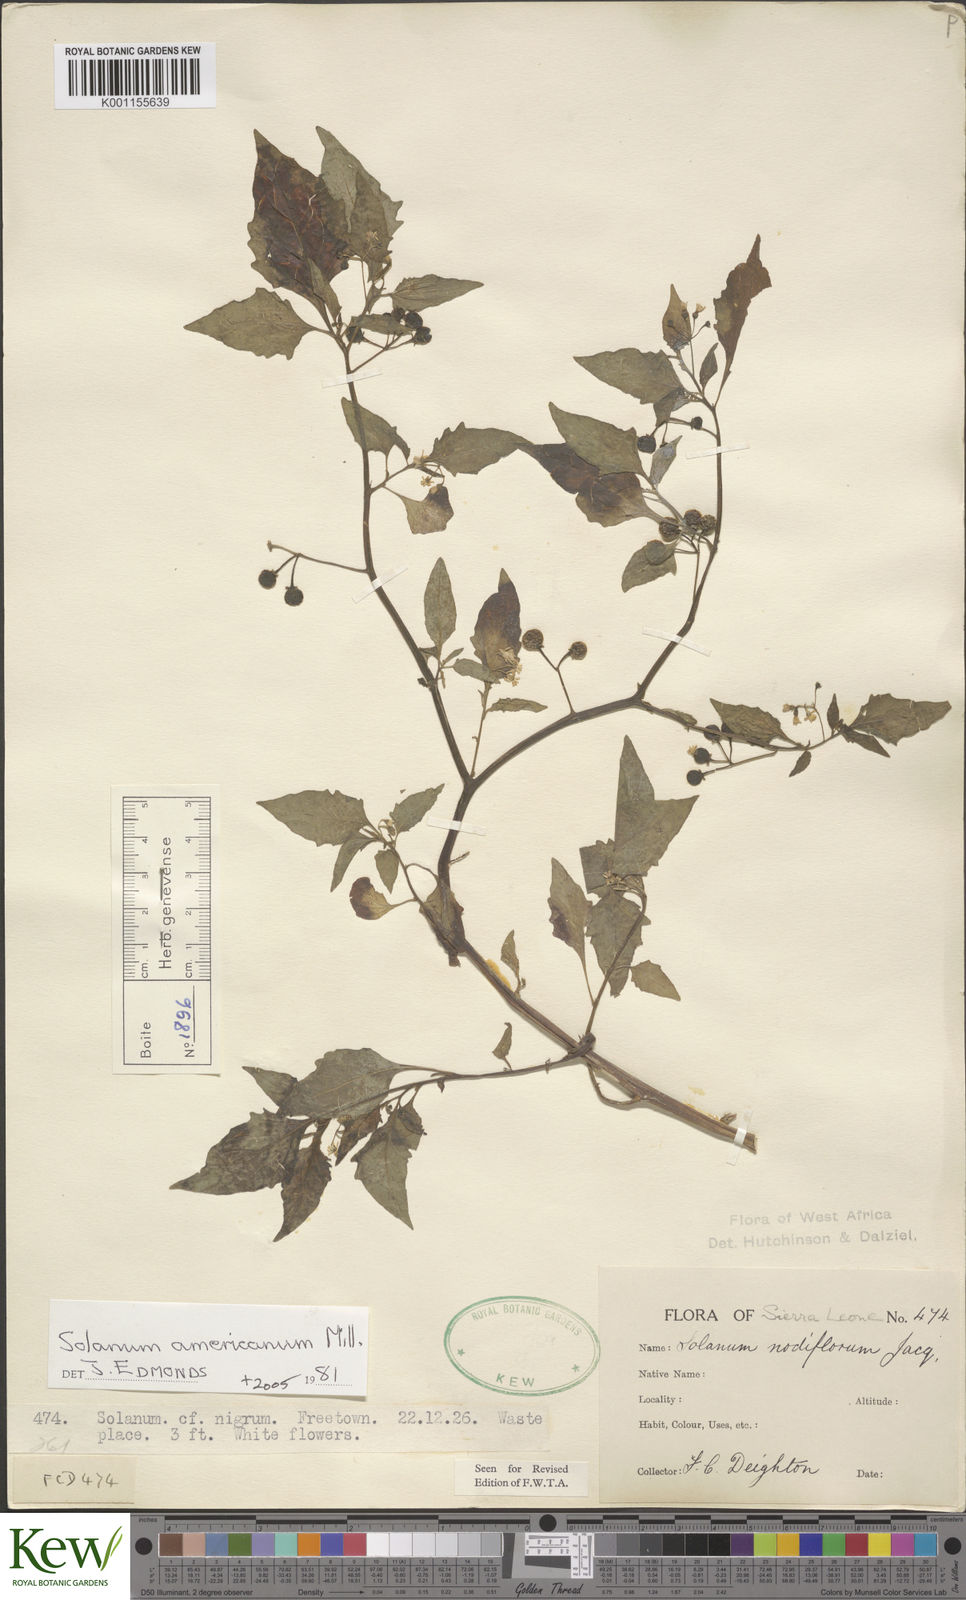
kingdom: Plantae
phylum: Tracheophyta
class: Magnoliopsida
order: Solanales
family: Solanaceae
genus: Solanum
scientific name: Solanum americanum
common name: American black nightshade
